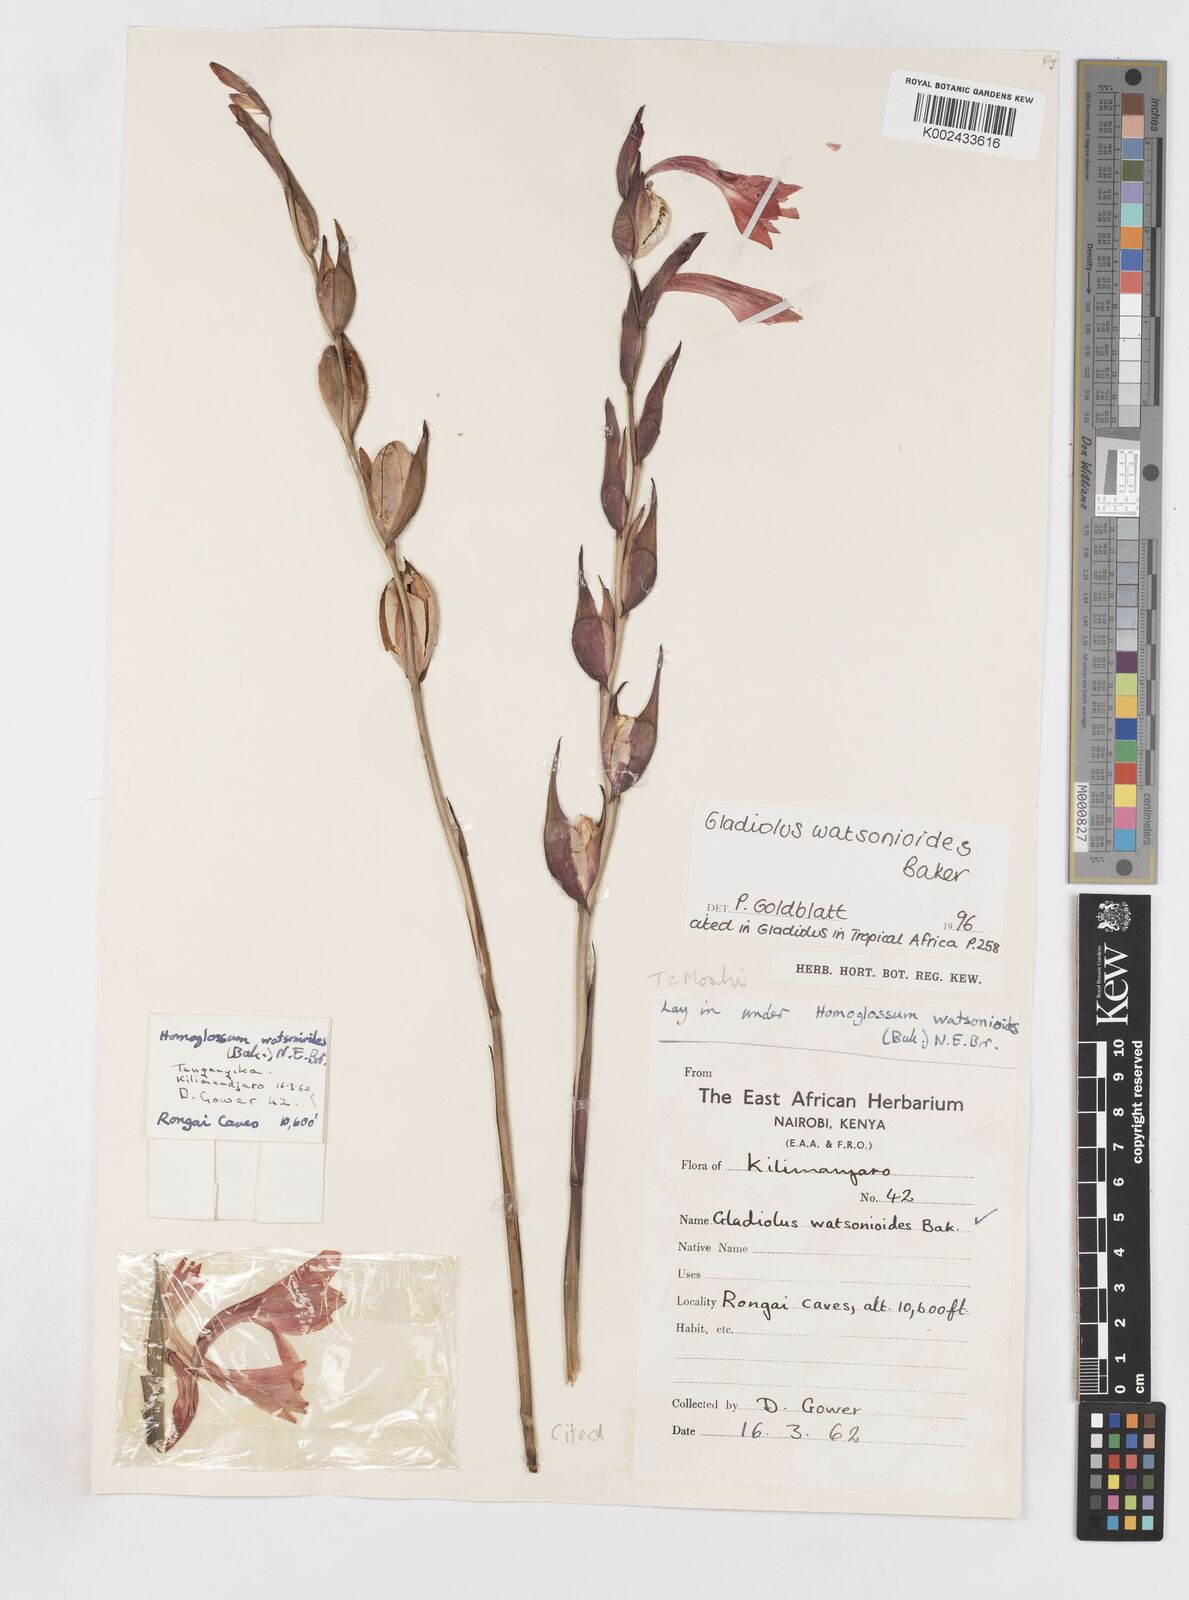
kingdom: Plantae
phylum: Tracheophyta
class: Liliopsida
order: Asparagales
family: Iridaceae
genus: Gladiolus
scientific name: Gladiolus watsonioides
